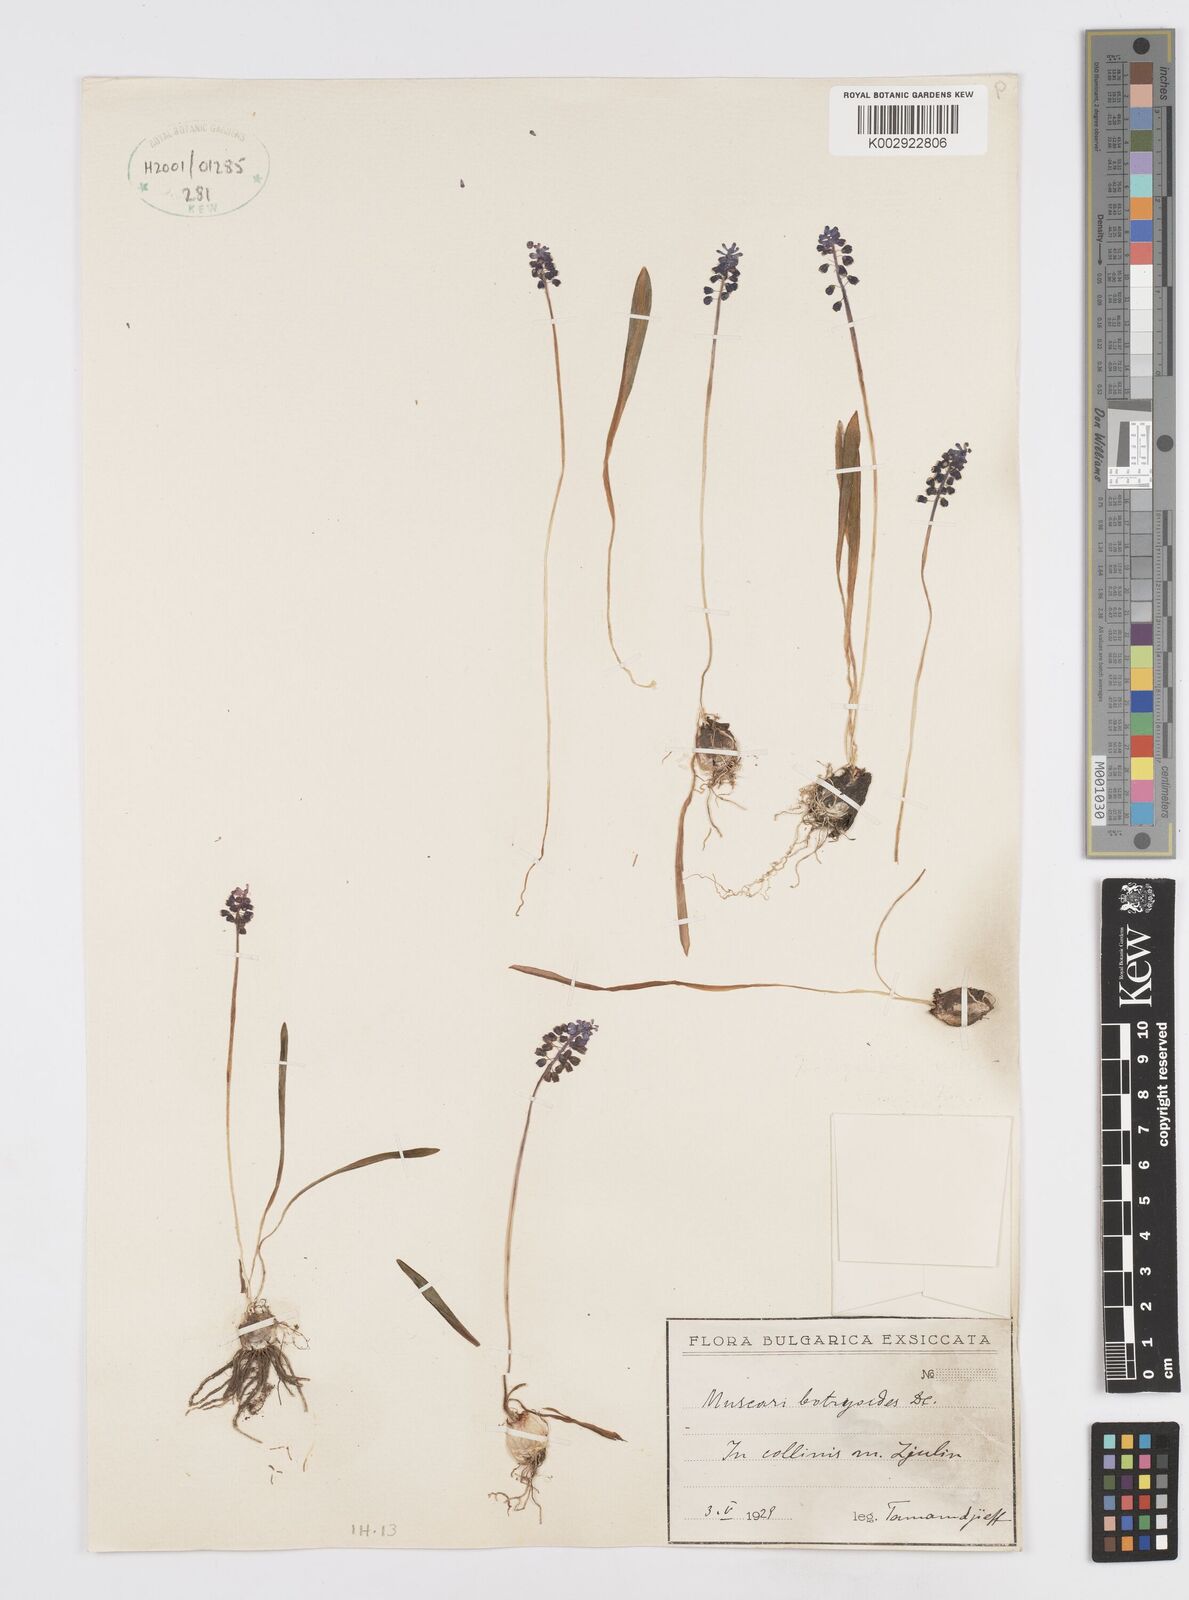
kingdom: Plantae
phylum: Tracheophyta
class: Liliopsida
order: Asparagales
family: Asparagaceae
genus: Muscari
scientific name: Muscari botryoides
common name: Compact grape-hyacinth
